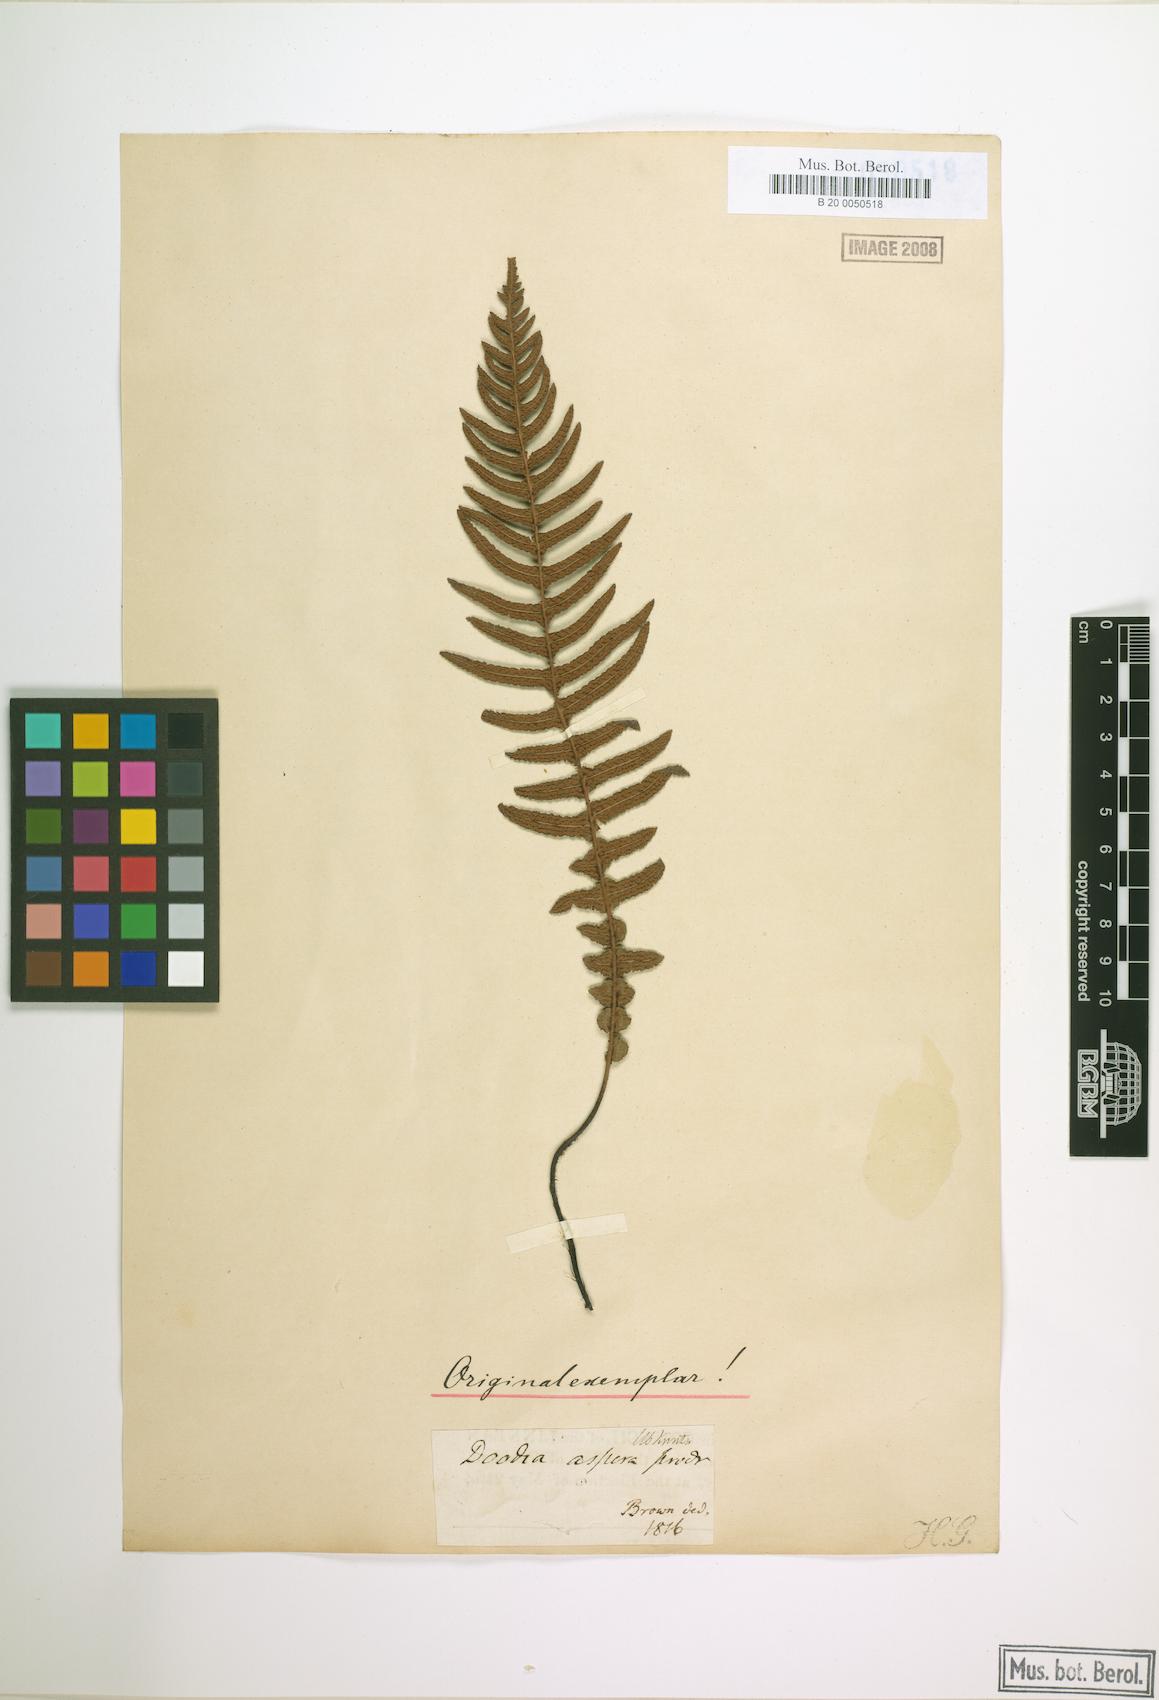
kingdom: Plantae
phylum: Tracheophyta
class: Polypodiopsida
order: Polypodiales
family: Blechnaceae
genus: Doodia
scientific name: Doodia aspera
